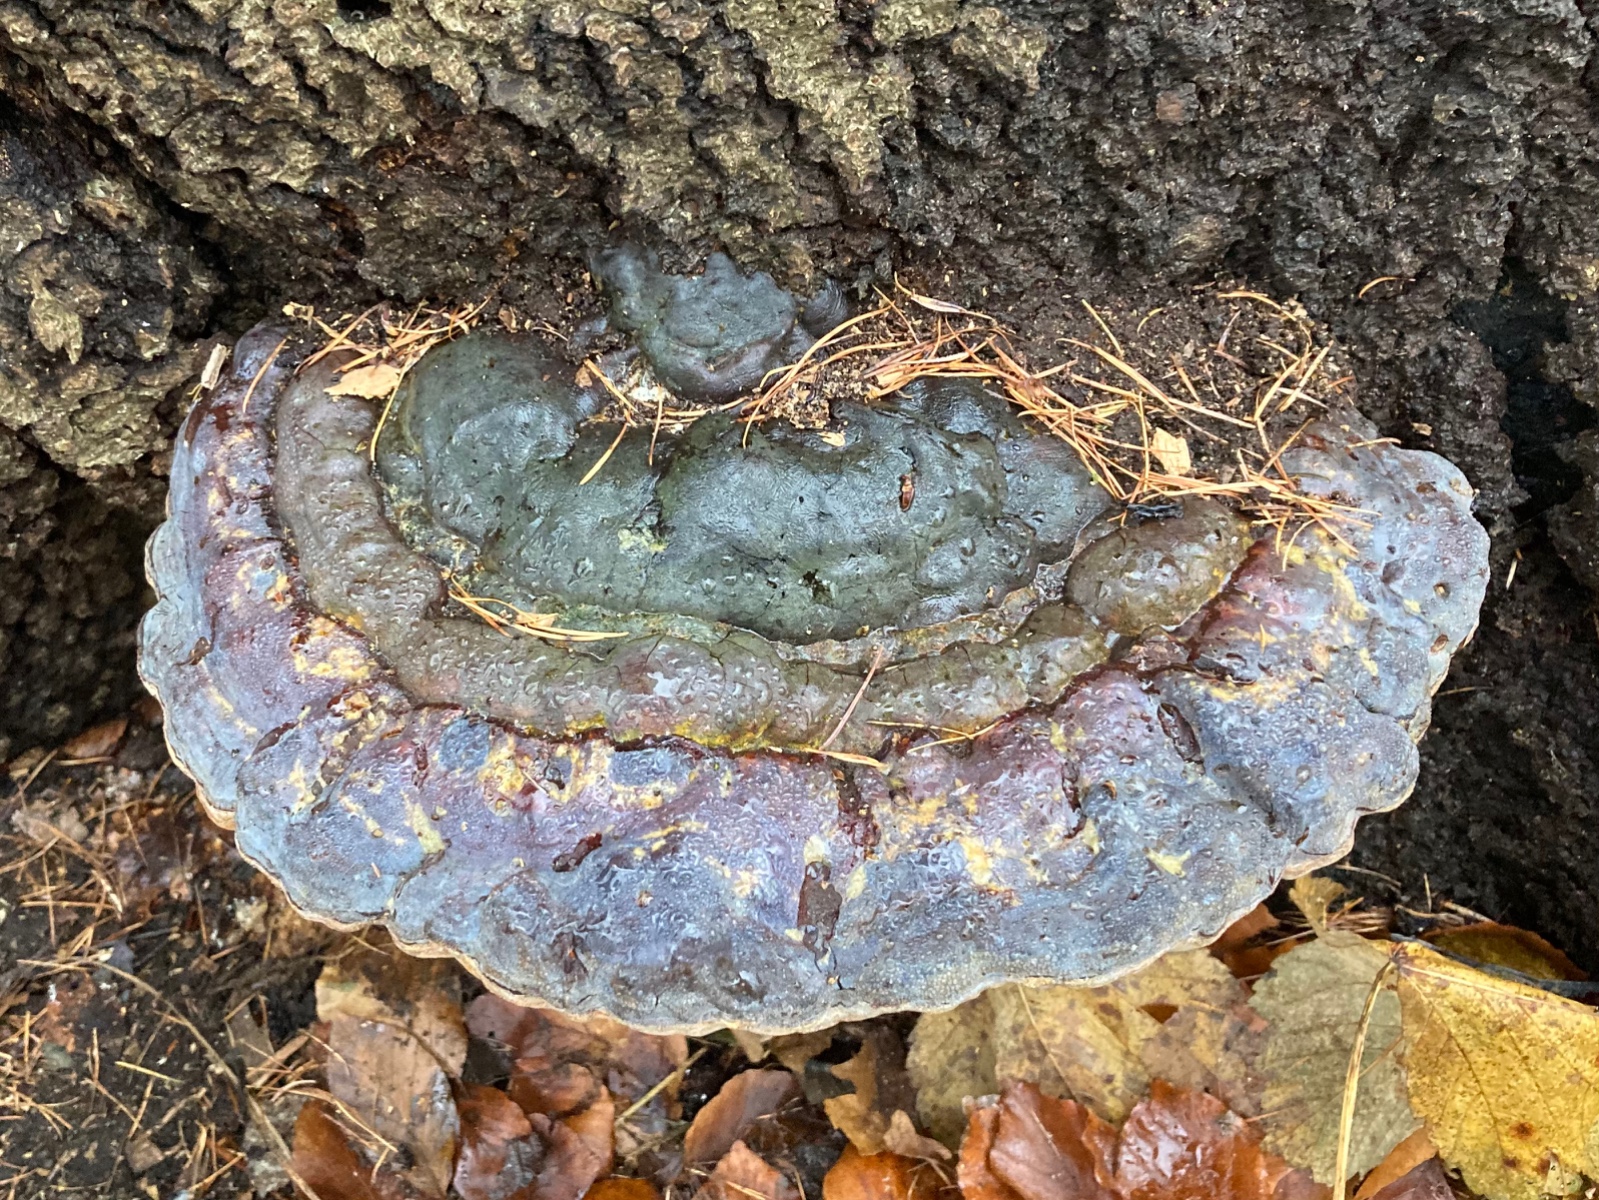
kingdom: Fungi
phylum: Basidiomycota
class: Agaricomycetes
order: Polyporales
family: Polyporaceae
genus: Ganoderma
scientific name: Ganoderma pfeifferi
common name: kobberrød lakporesvamp
